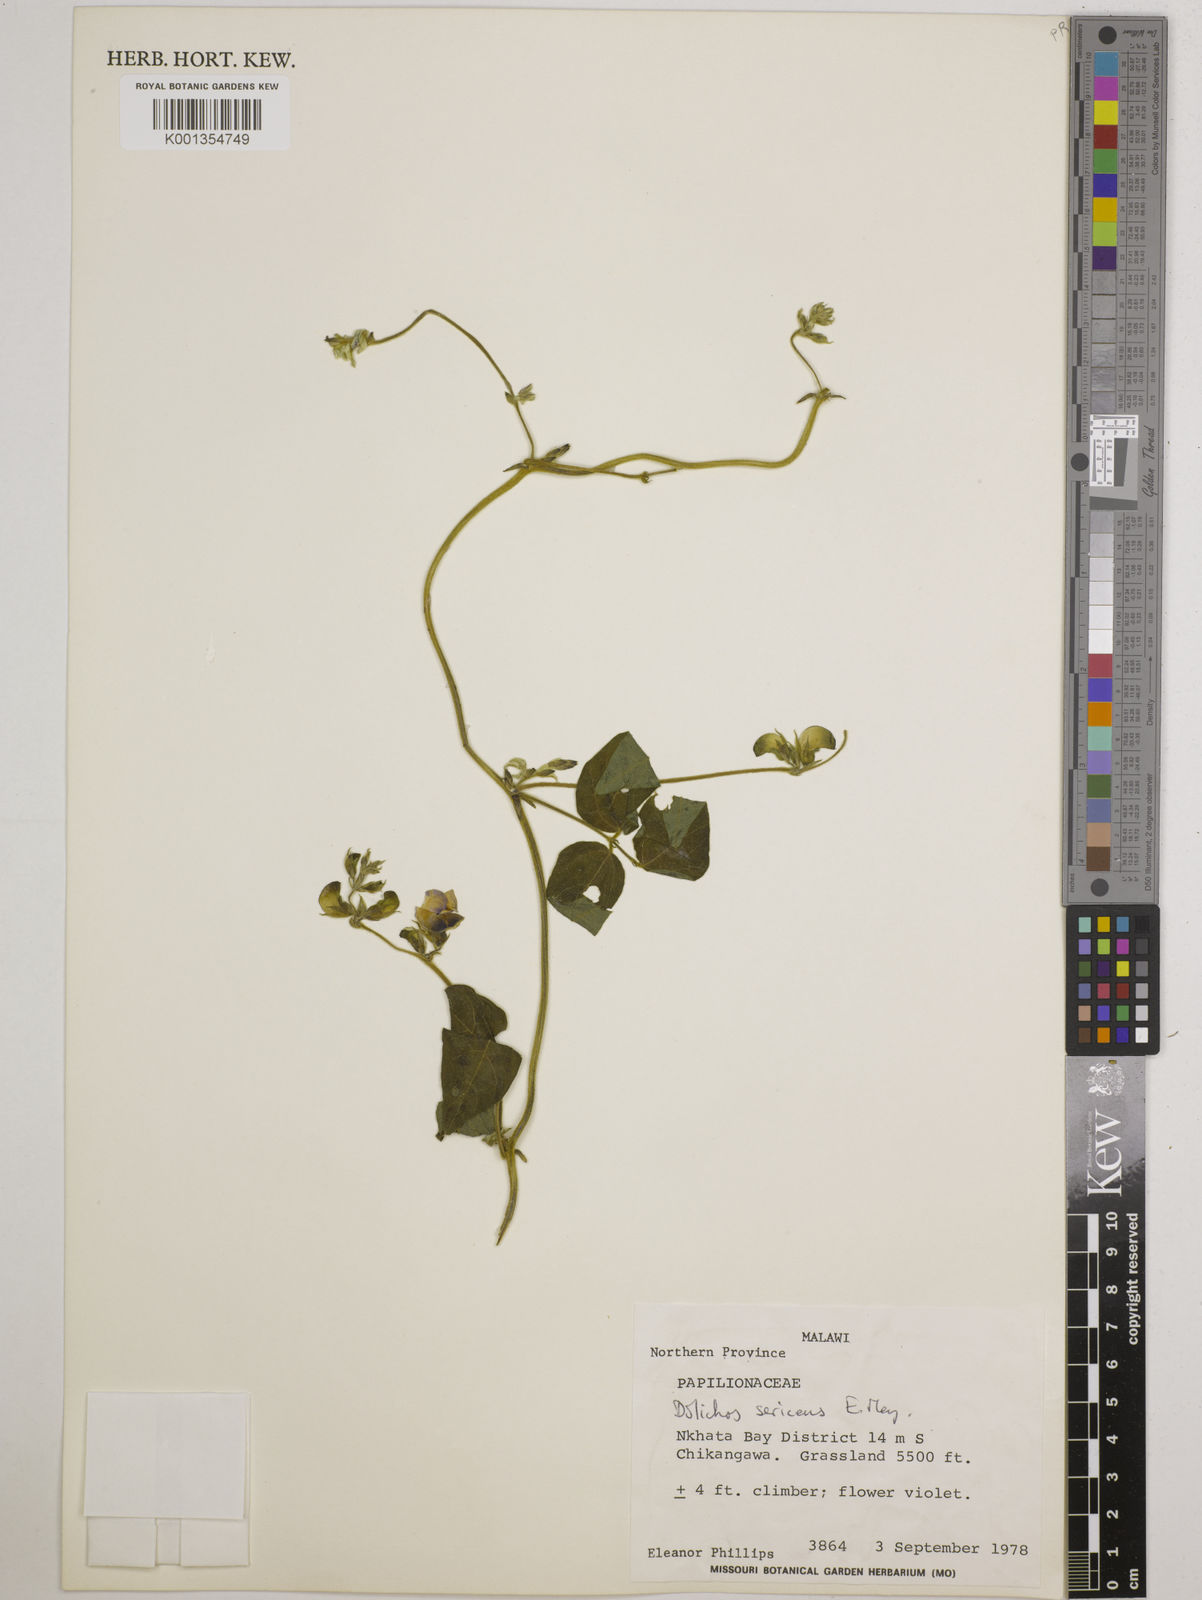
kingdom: Plantae
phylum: Tracheophyta
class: Magnoliopsida
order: Fabales
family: Fabaceae
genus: Dolichos
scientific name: Dolichos
